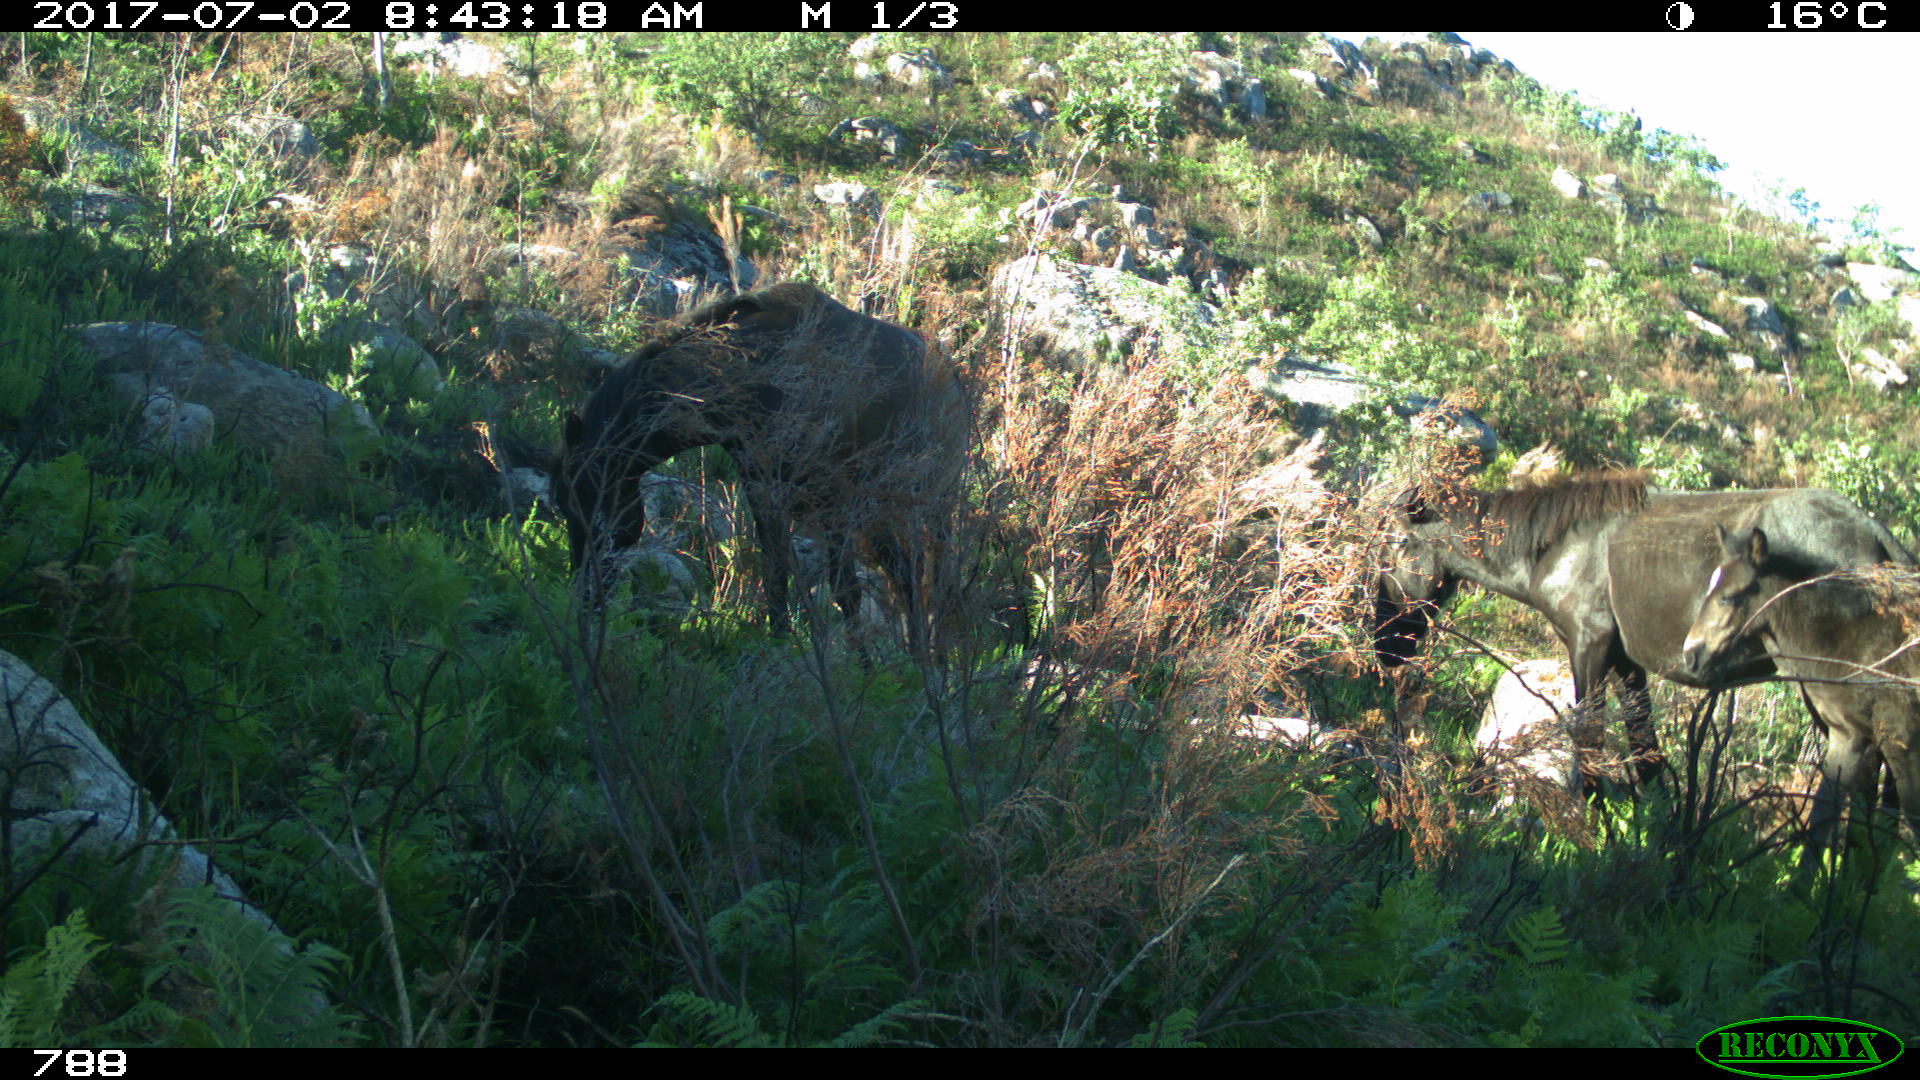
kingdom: Animalia
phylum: Chordata
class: Mammalia
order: Perissodactyla
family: Equidae
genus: Equus
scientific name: Equus caballus
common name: Horse
